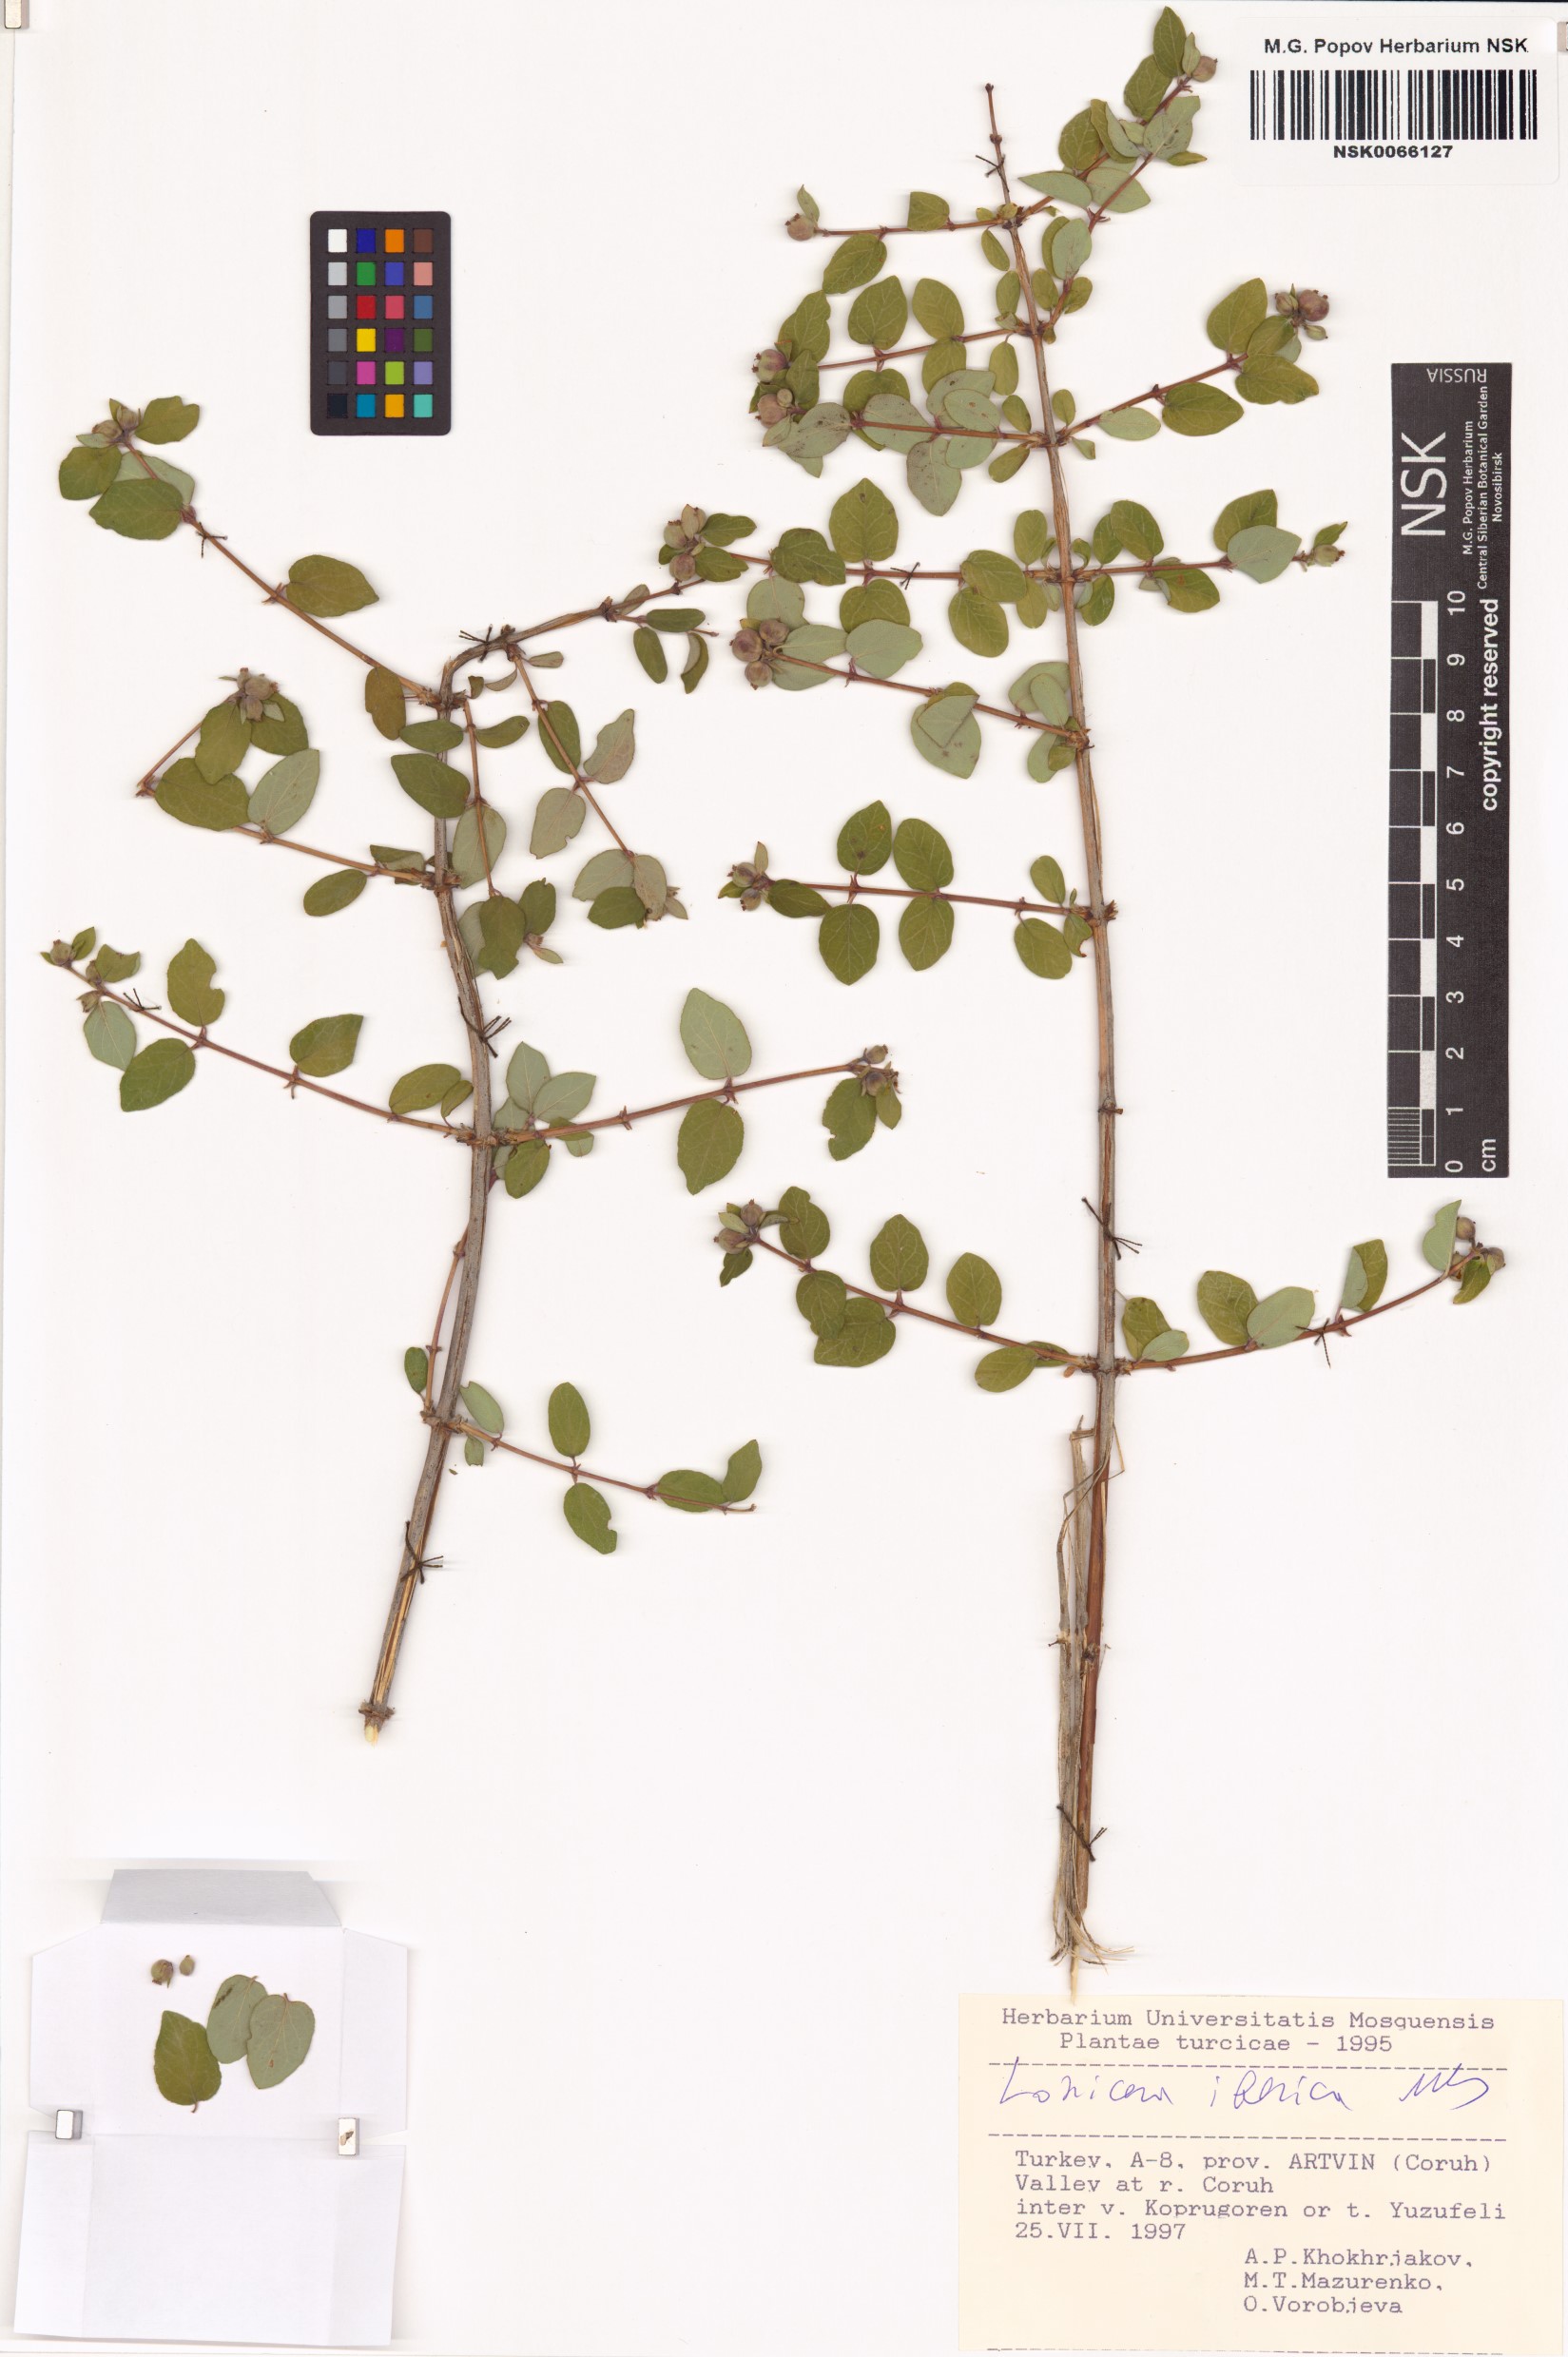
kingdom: Plantae
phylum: Tracheophyta
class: Magnoliopsida
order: Dipsacales
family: Caprifoliaceae
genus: Lonicera
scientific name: Lonicera iberica
